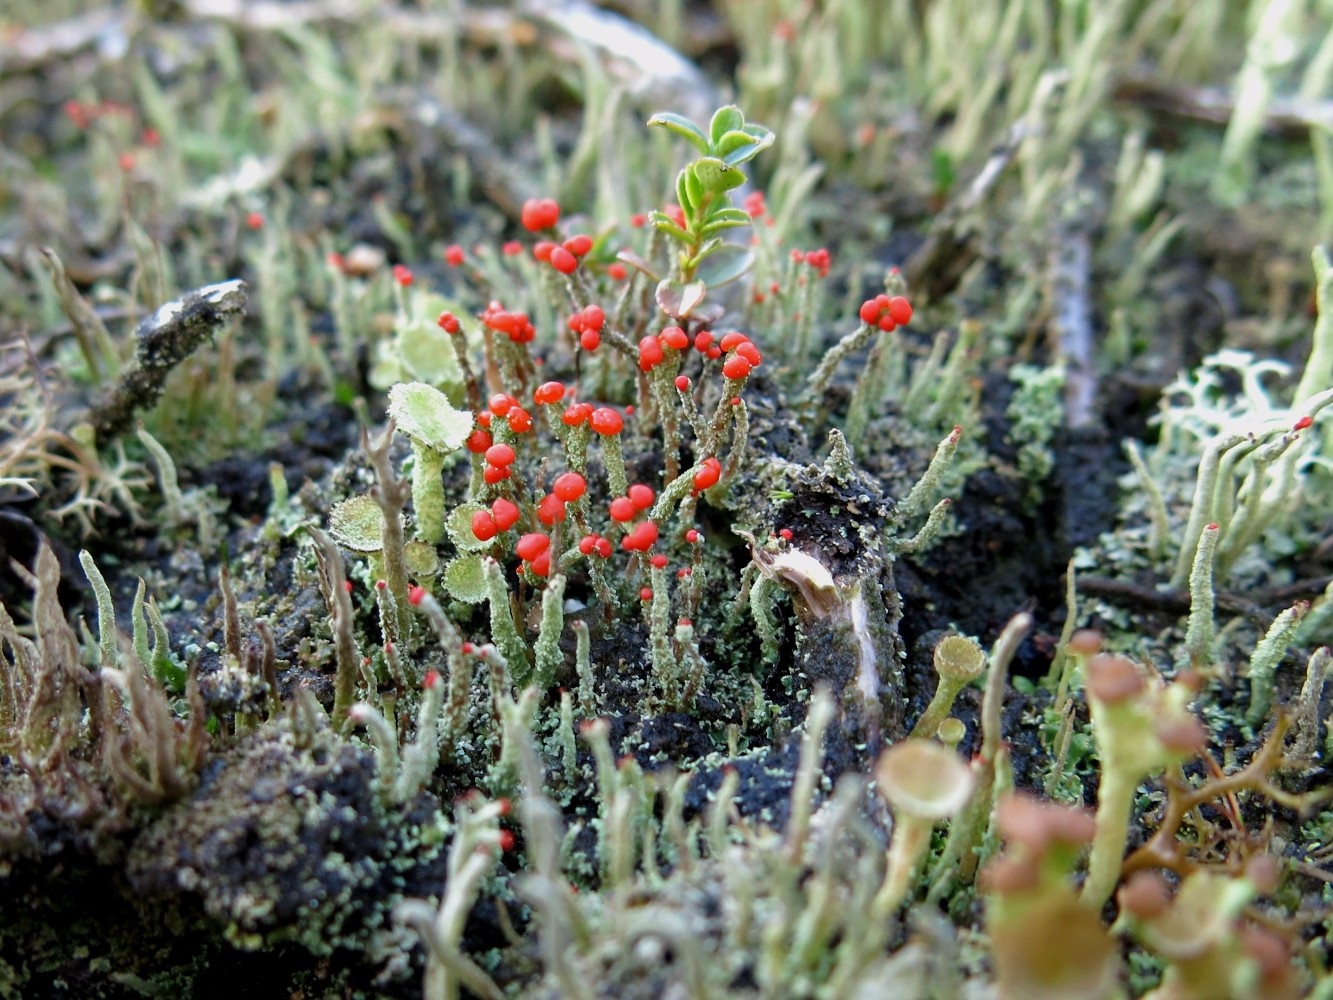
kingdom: Fungi
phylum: Ascomycota
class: Lecanoromycetes
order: Lecanorales
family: Cladoniaceae
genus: Cladonia
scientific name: Cladonia floerkeana
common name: lakrød bægerlav
